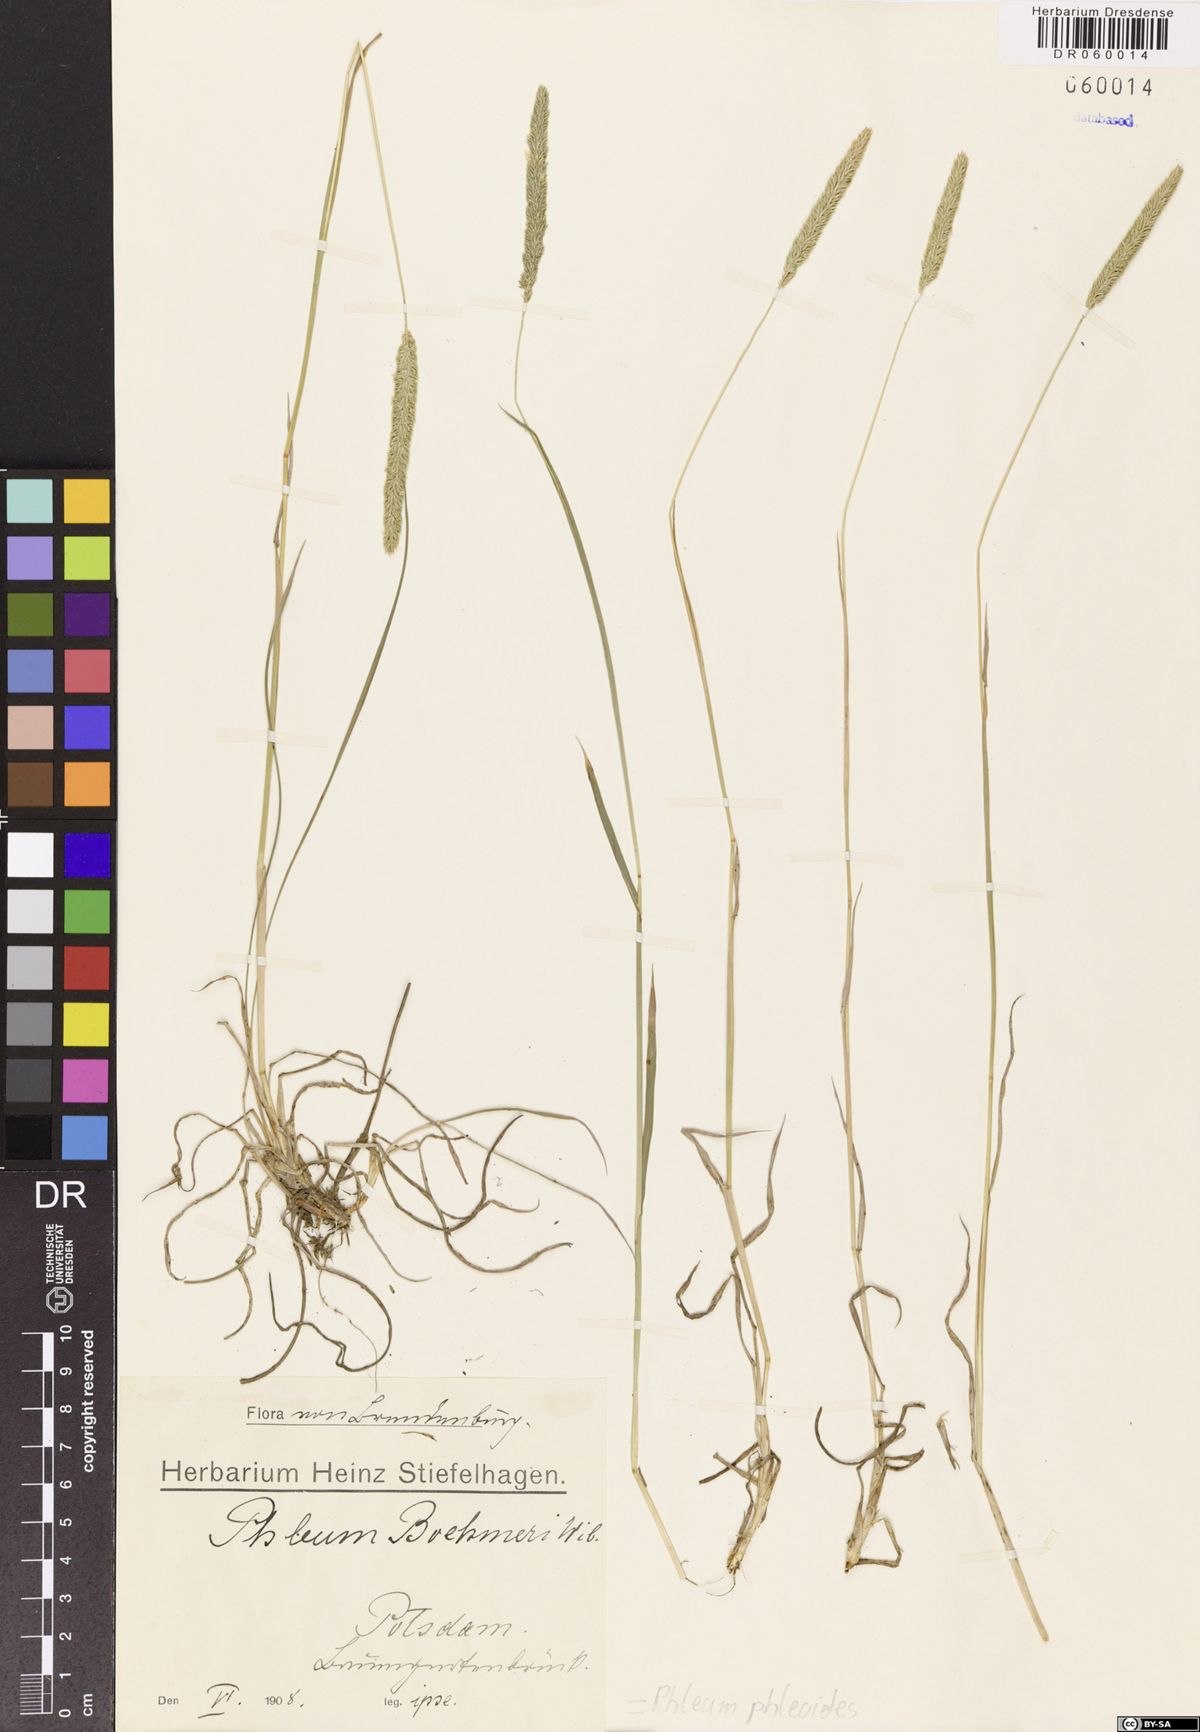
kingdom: Plantae
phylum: Tracheophyta
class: Liliopsida
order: Poales
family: Poaceae
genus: Phleum
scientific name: Phleum phleoides
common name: Purple-stem cat's-tail
